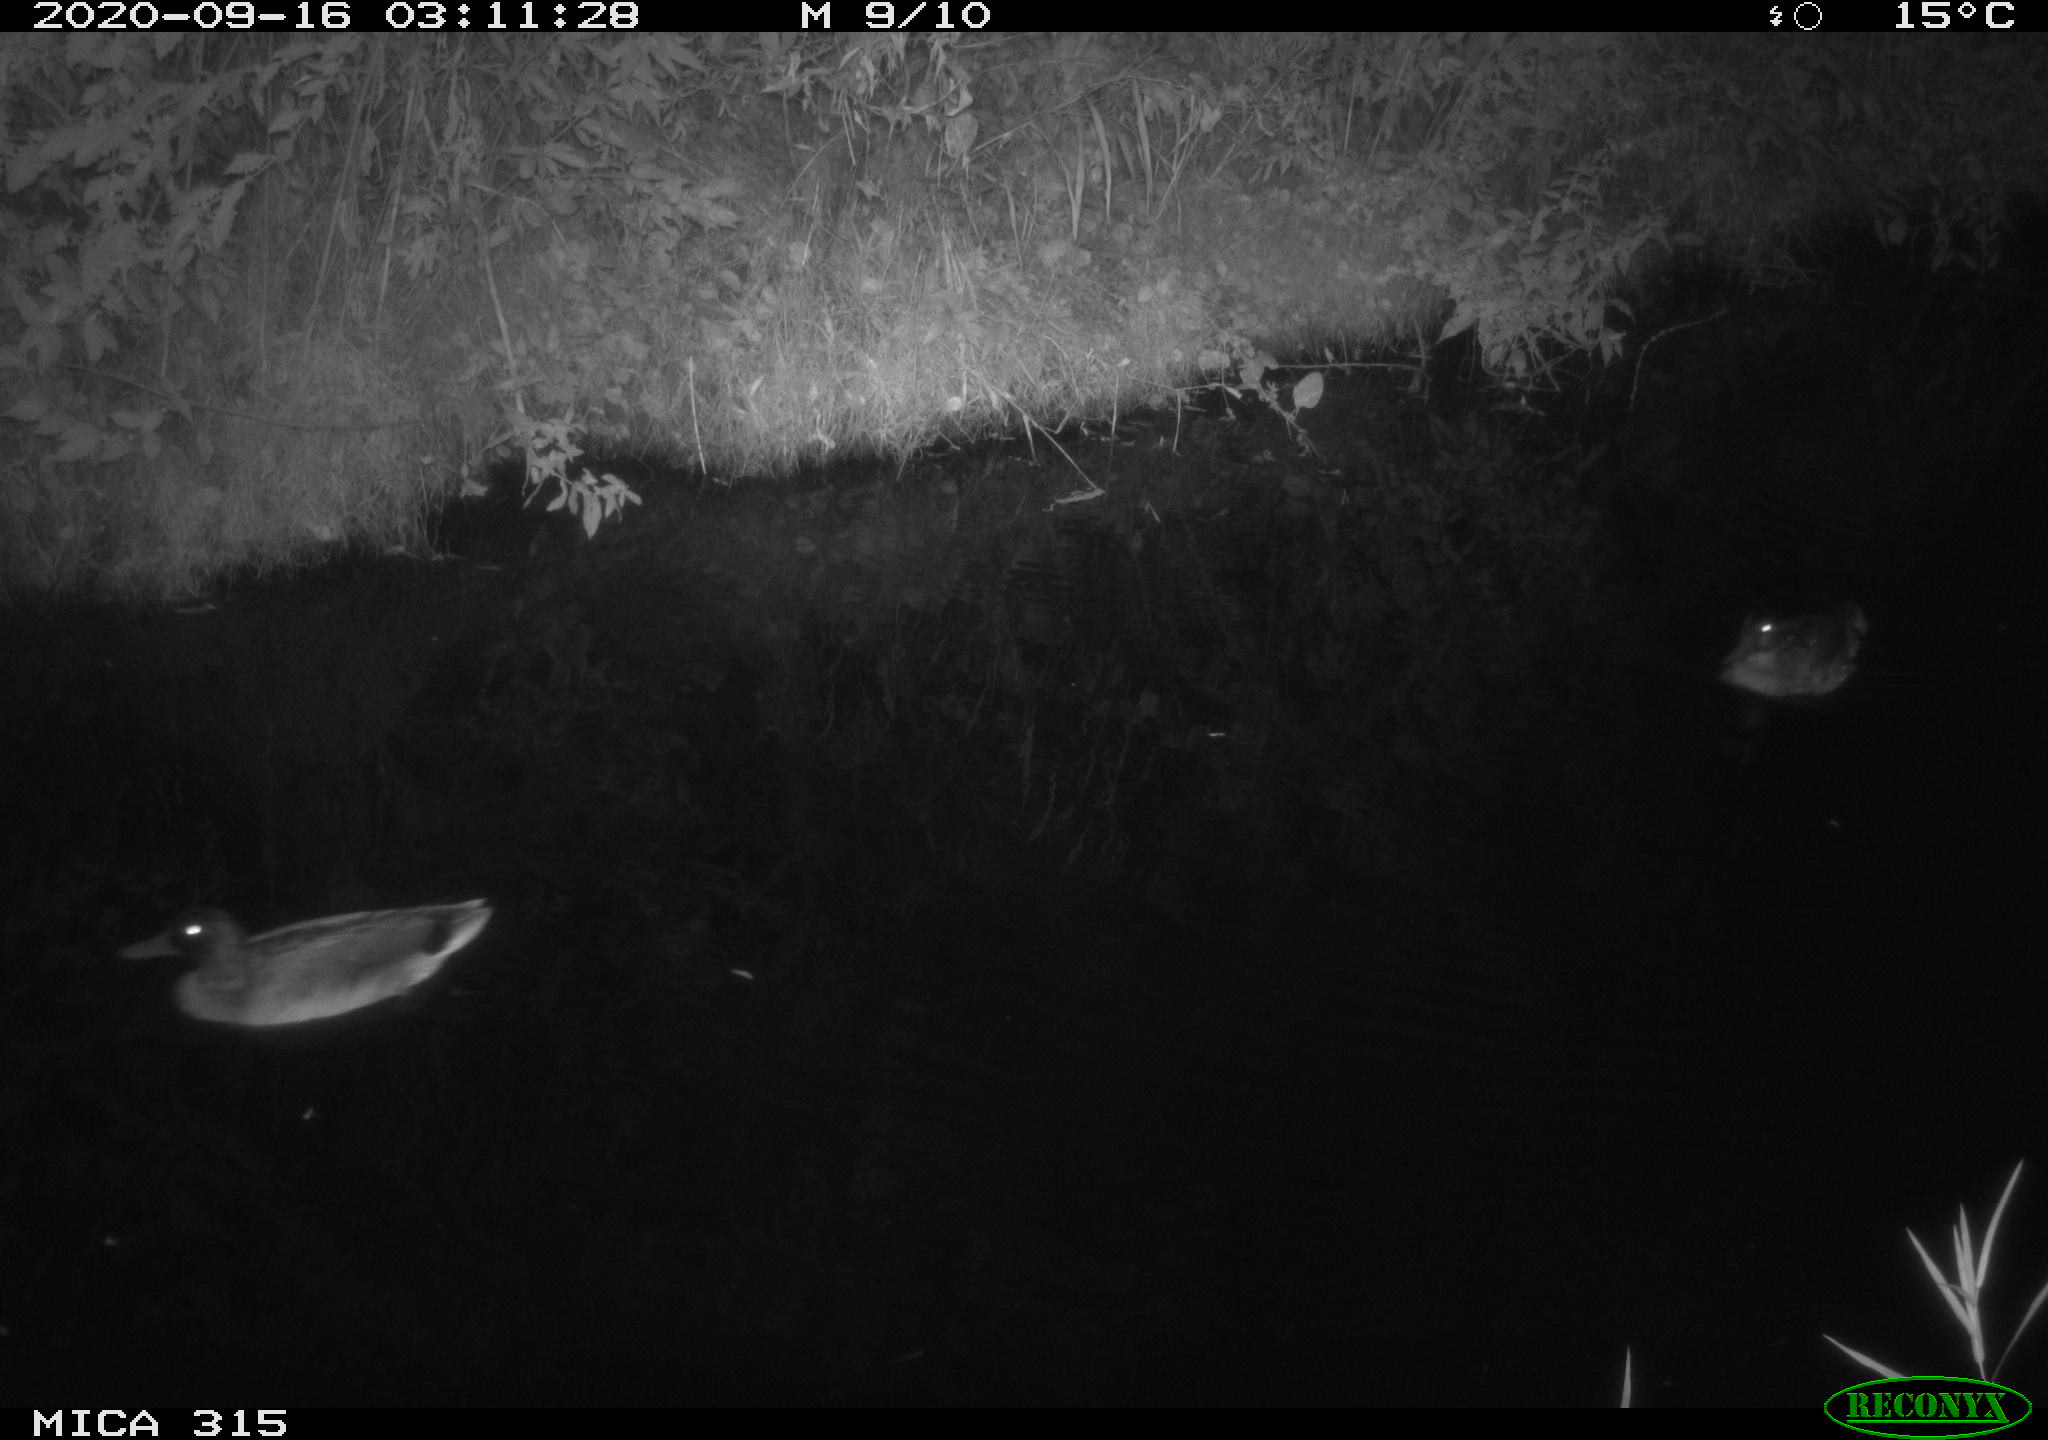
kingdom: Animalia
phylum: Chordata
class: Aves
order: Anseriformes
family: Anatidae
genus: Anas
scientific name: Anas platyrhynchos
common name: Mallard
